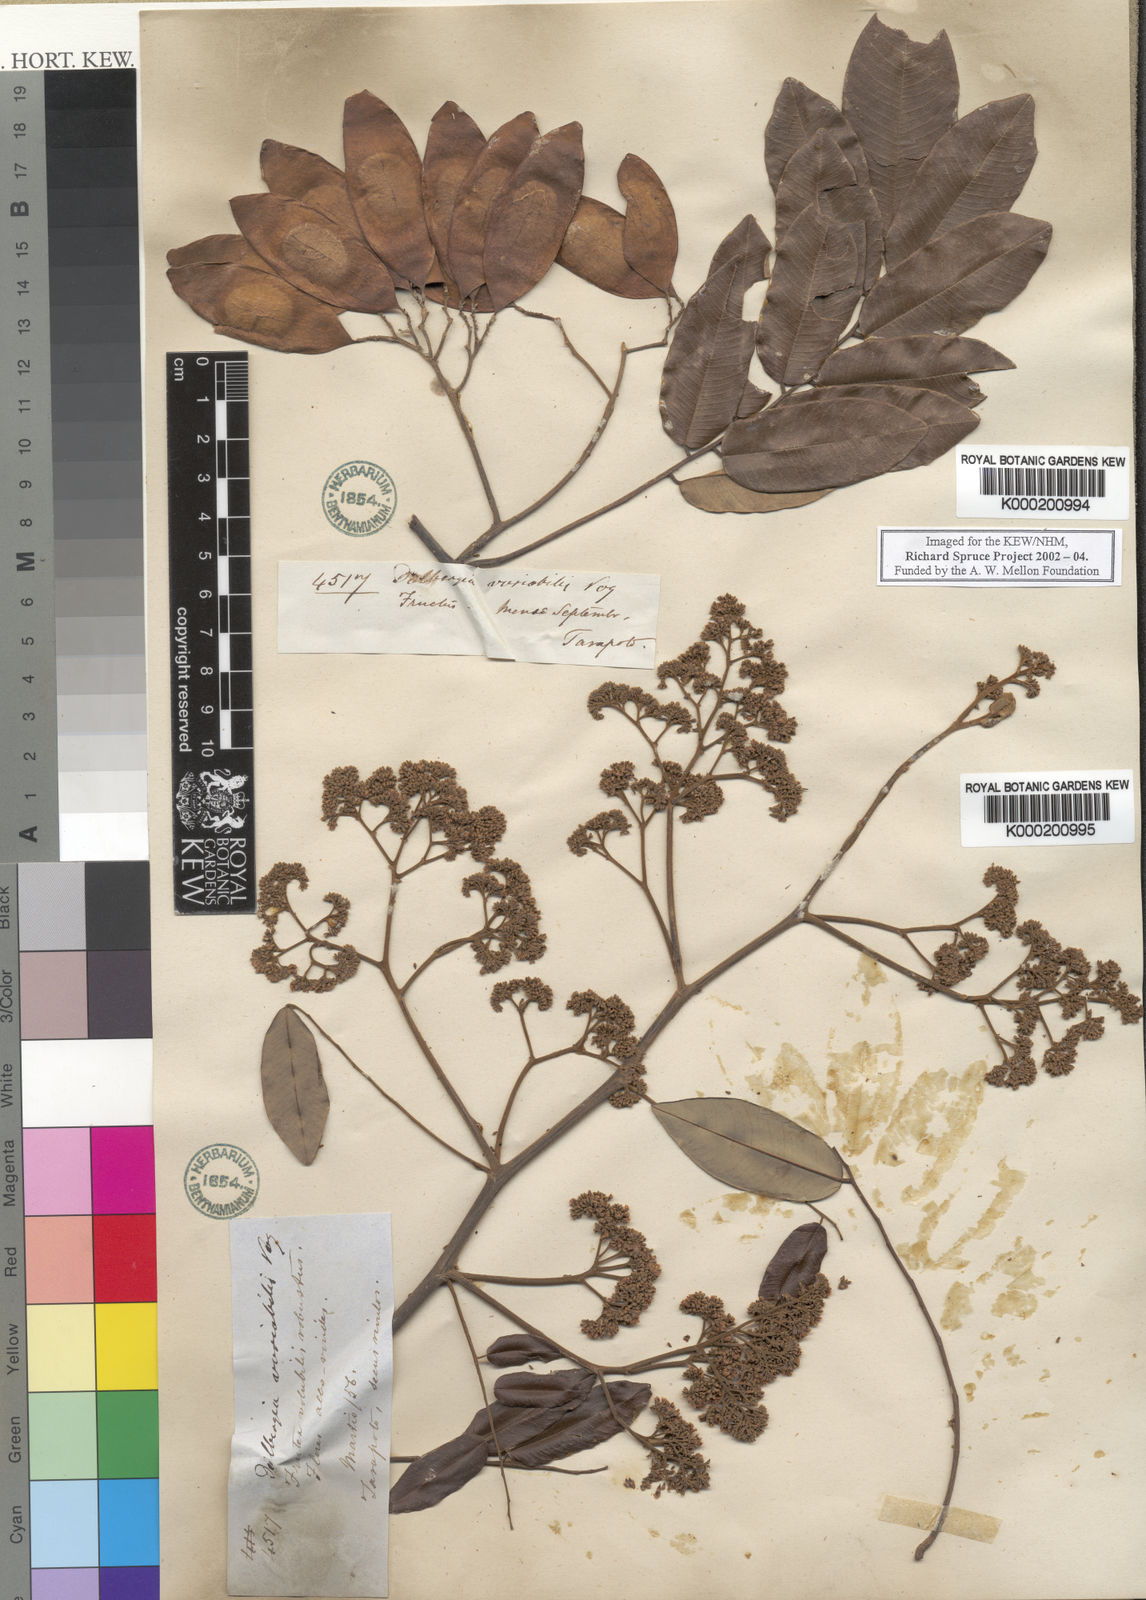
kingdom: Plantae
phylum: Tracheophyta
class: Magnoliopsida
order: Fabales
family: Fabaceae
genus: Dalbergia
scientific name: Dalbergia frutescens
